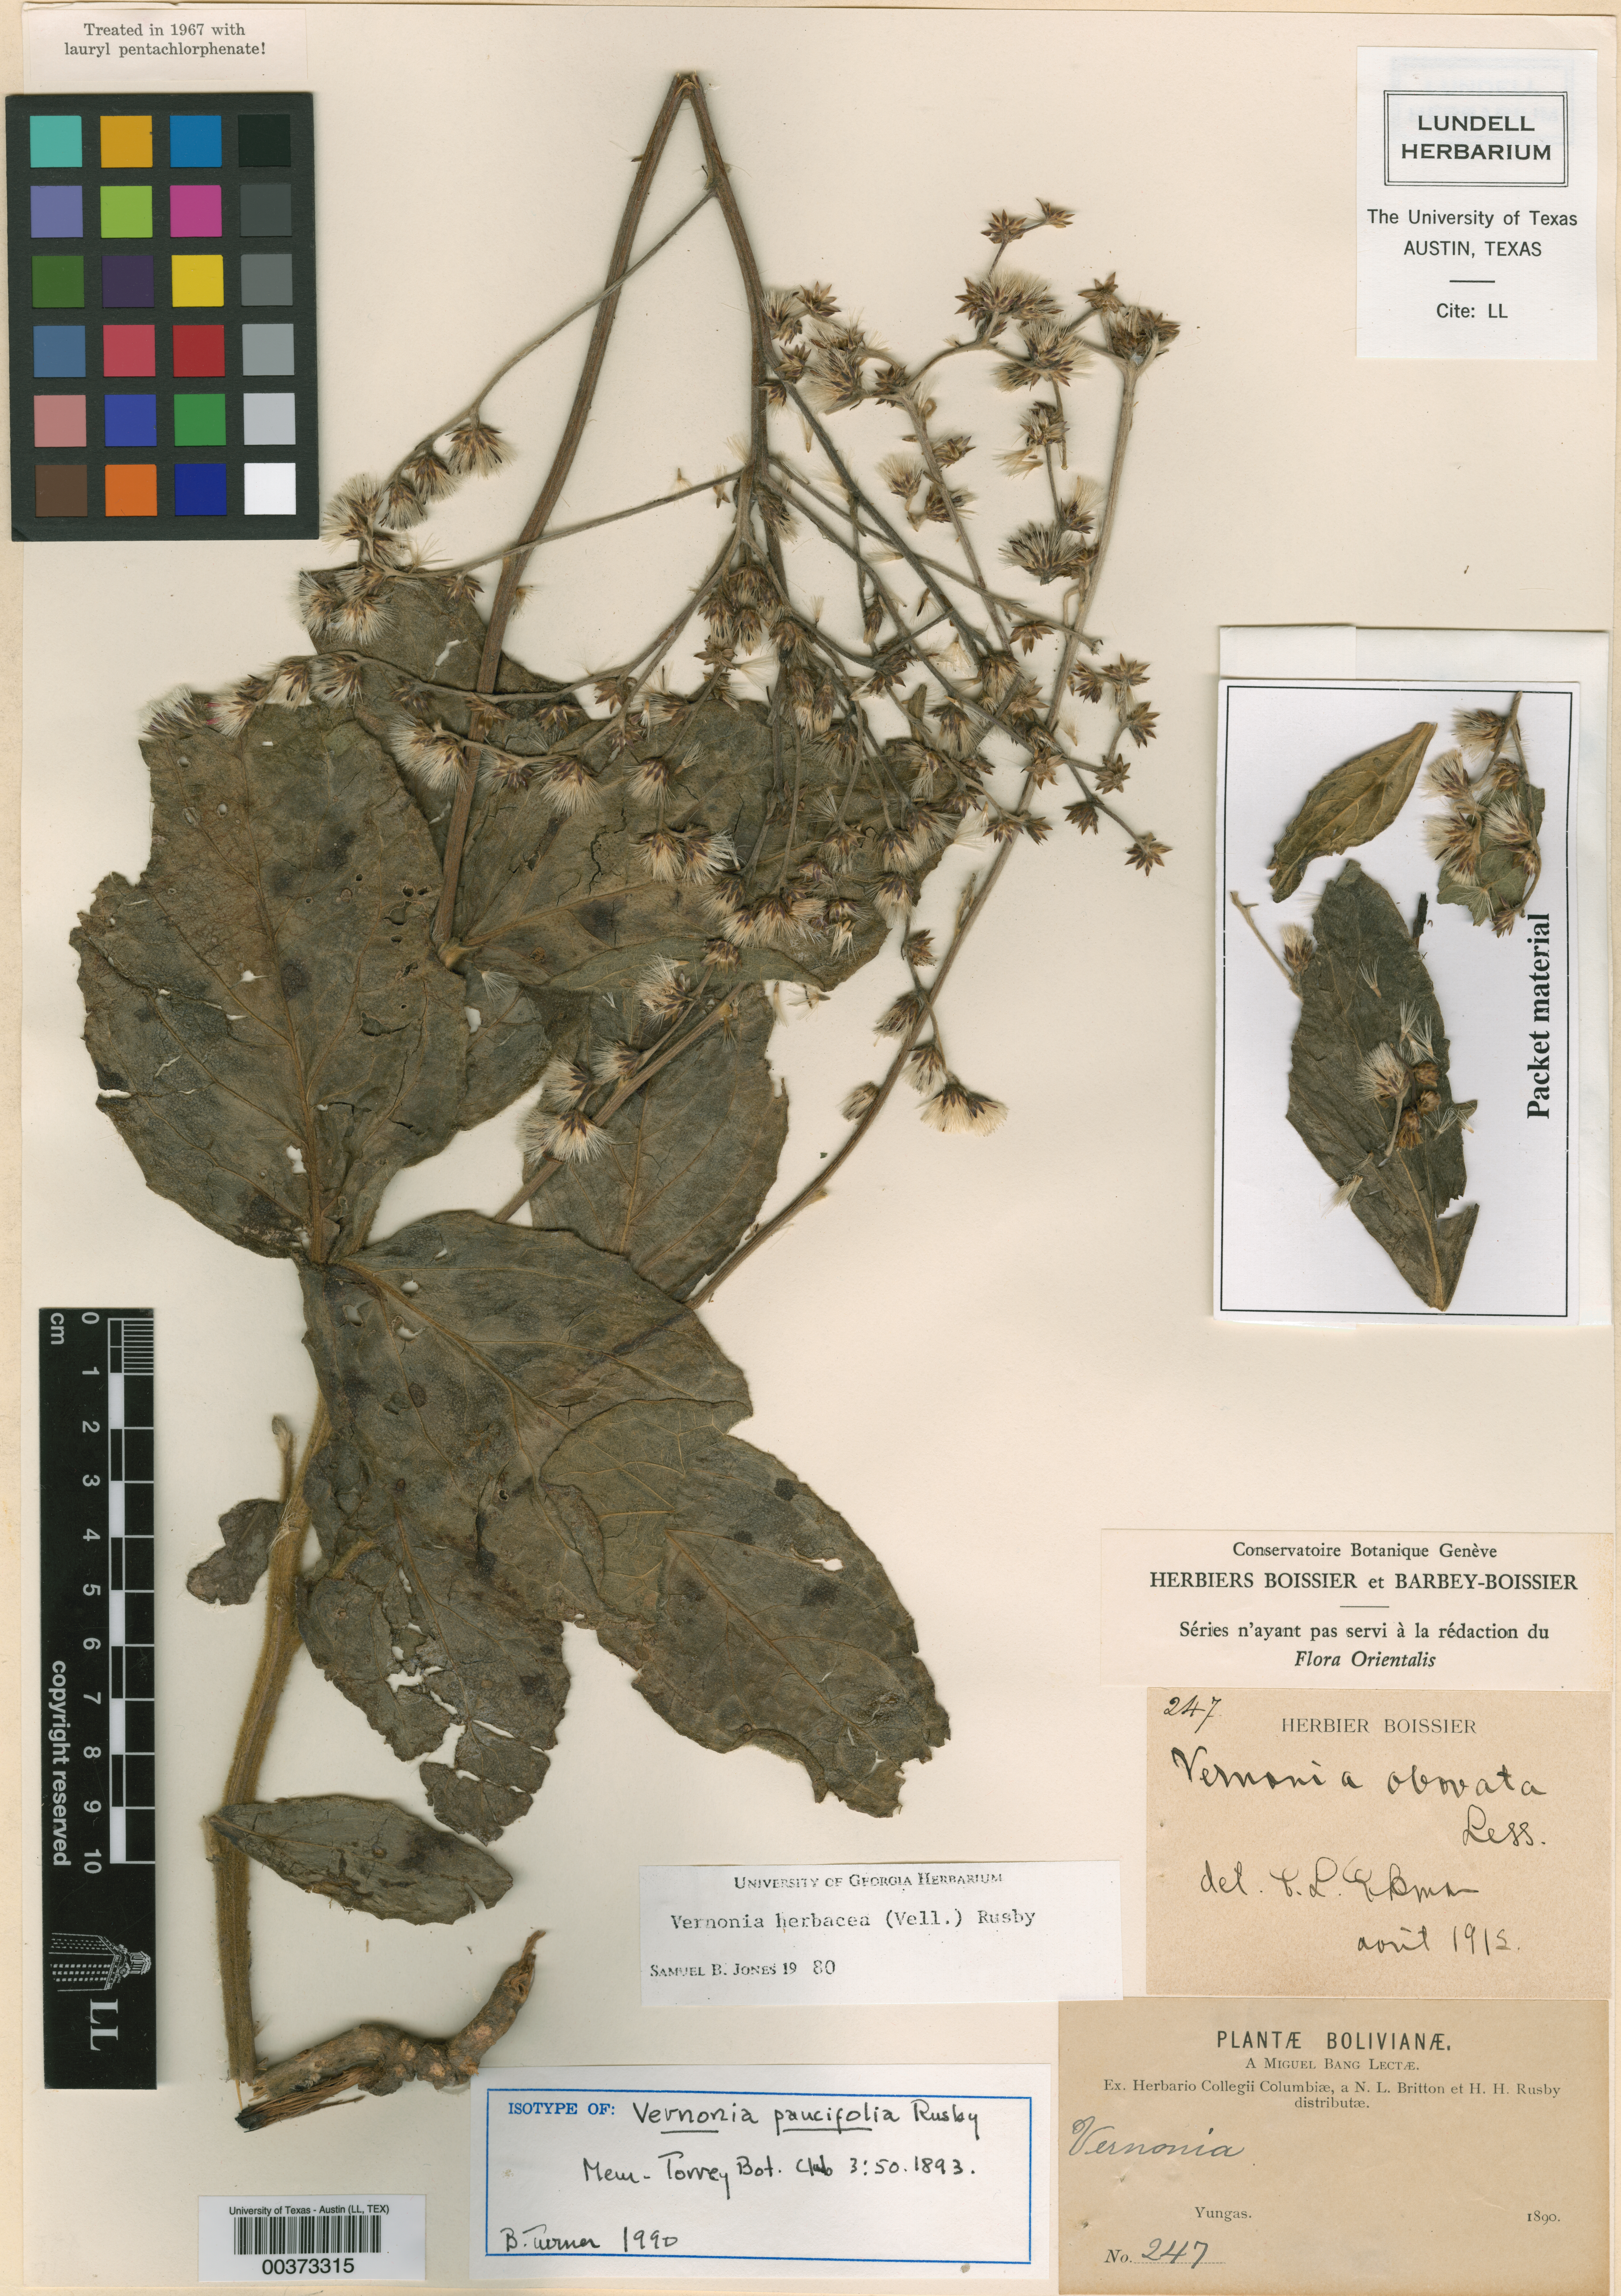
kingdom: Plantae
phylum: Tracheophyta
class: Magnoliopsida
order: Asterales
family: Asteraceae
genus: Chrysolaena
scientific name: Chrysolaena obovata
